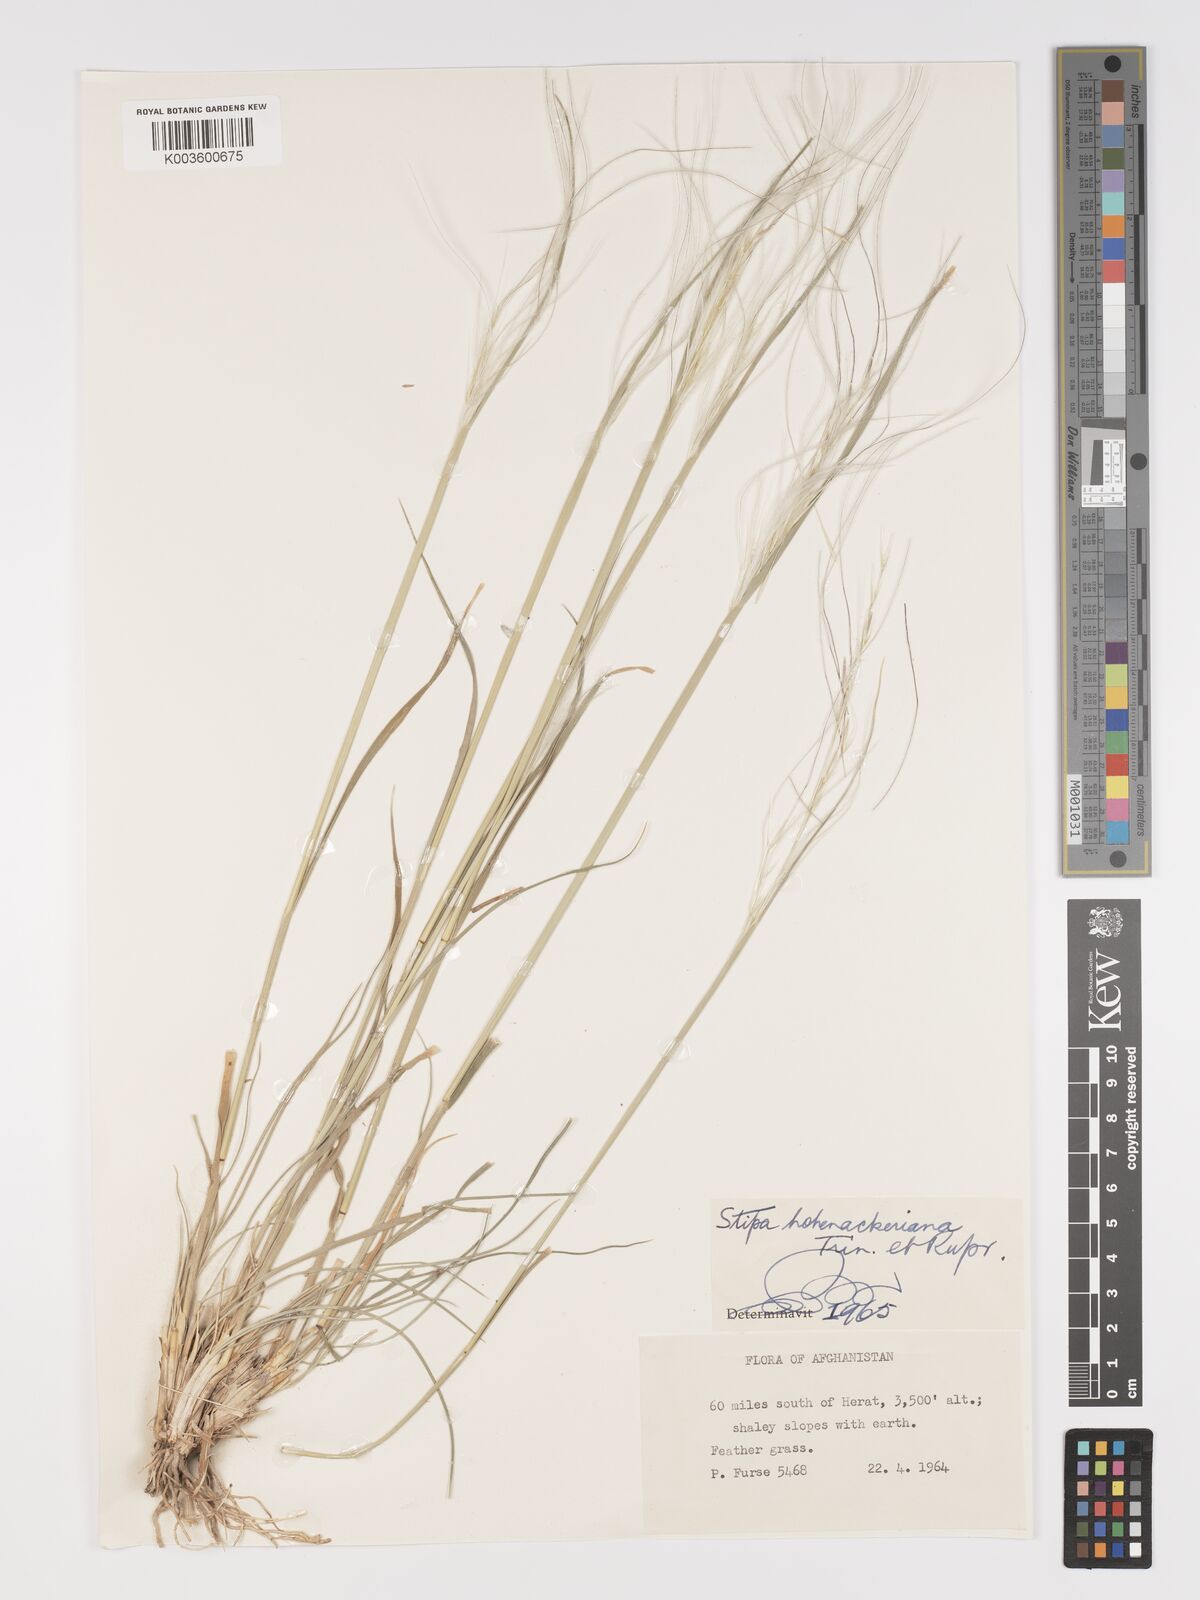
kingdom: Plantae
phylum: Tracheophyta
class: Liliopsida
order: Poales
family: Poaceae
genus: Stipa
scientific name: Stipa hohenackeriana
